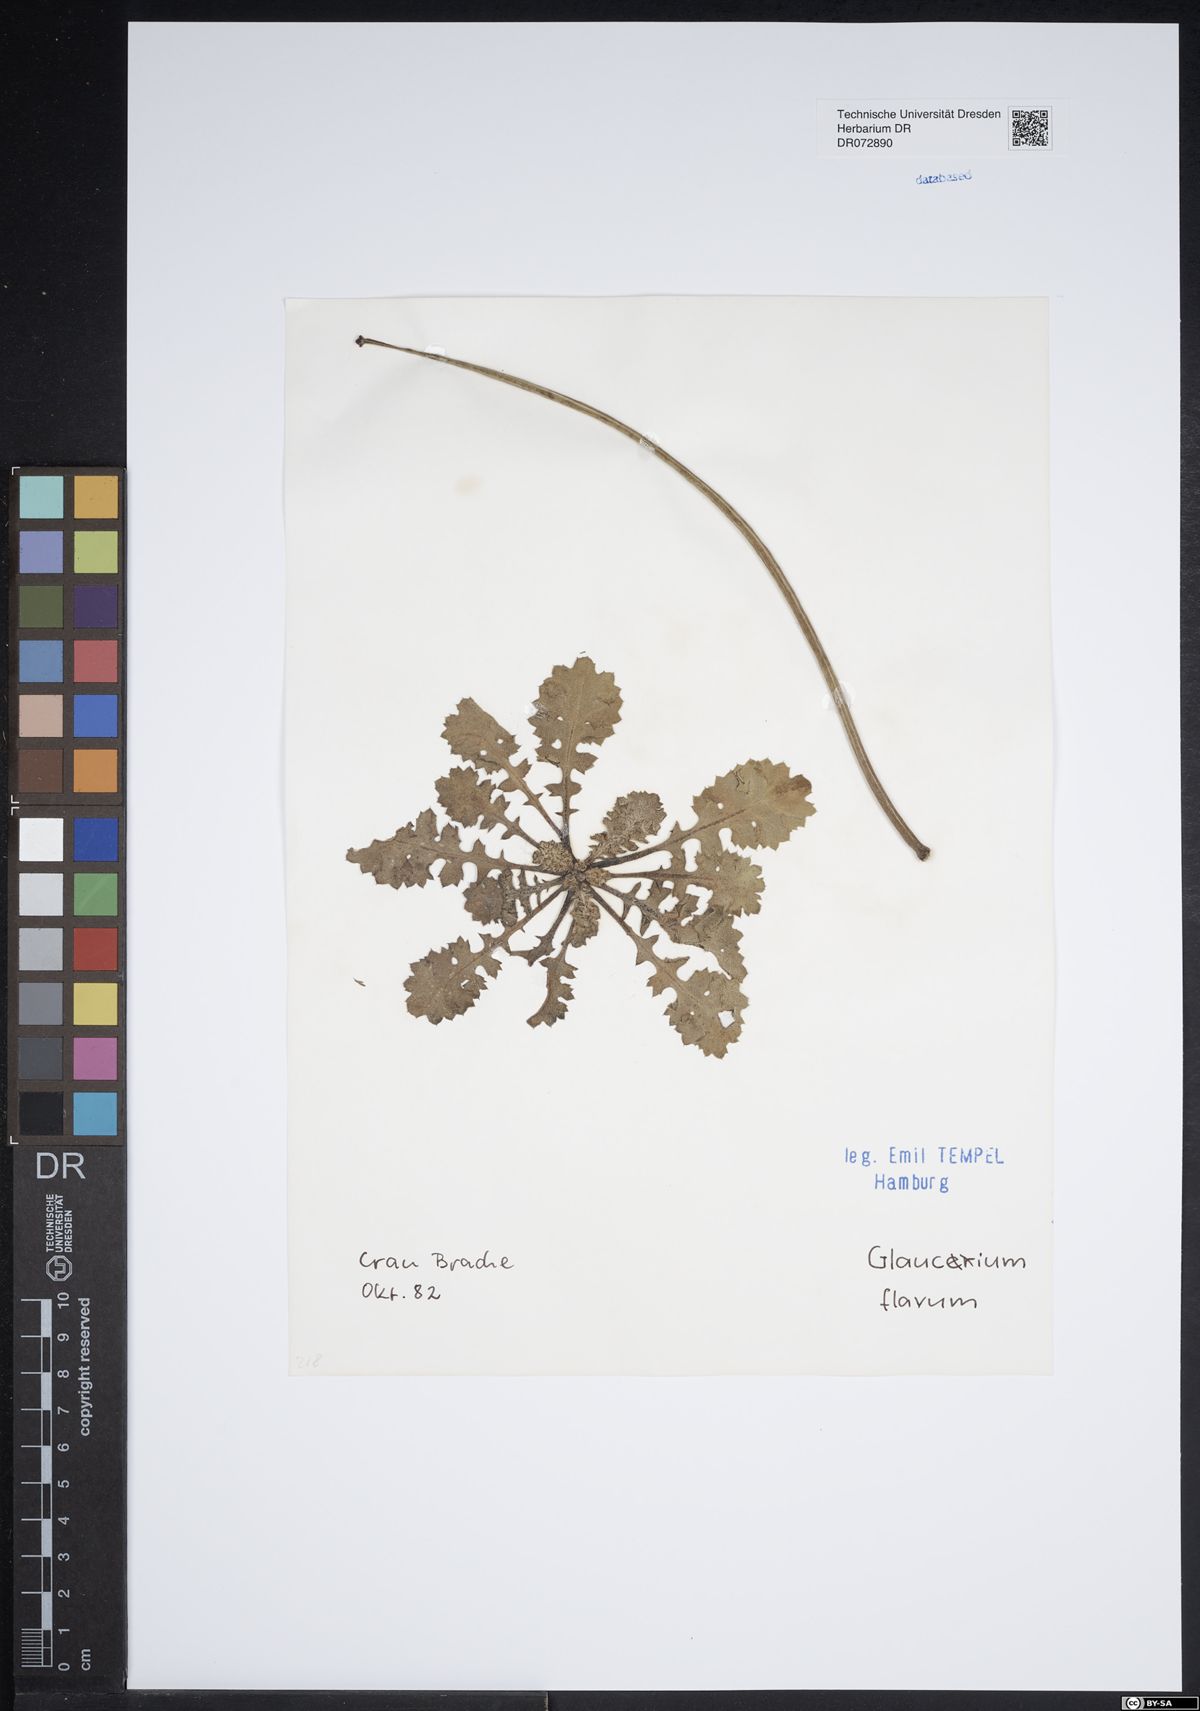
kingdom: Plantae
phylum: Tracheophyta
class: Magnoliopsida
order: Ranunculales
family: Papaveraceae
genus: Glaucium
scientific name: Glaucium flavum
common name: Yellow horned-poppy
